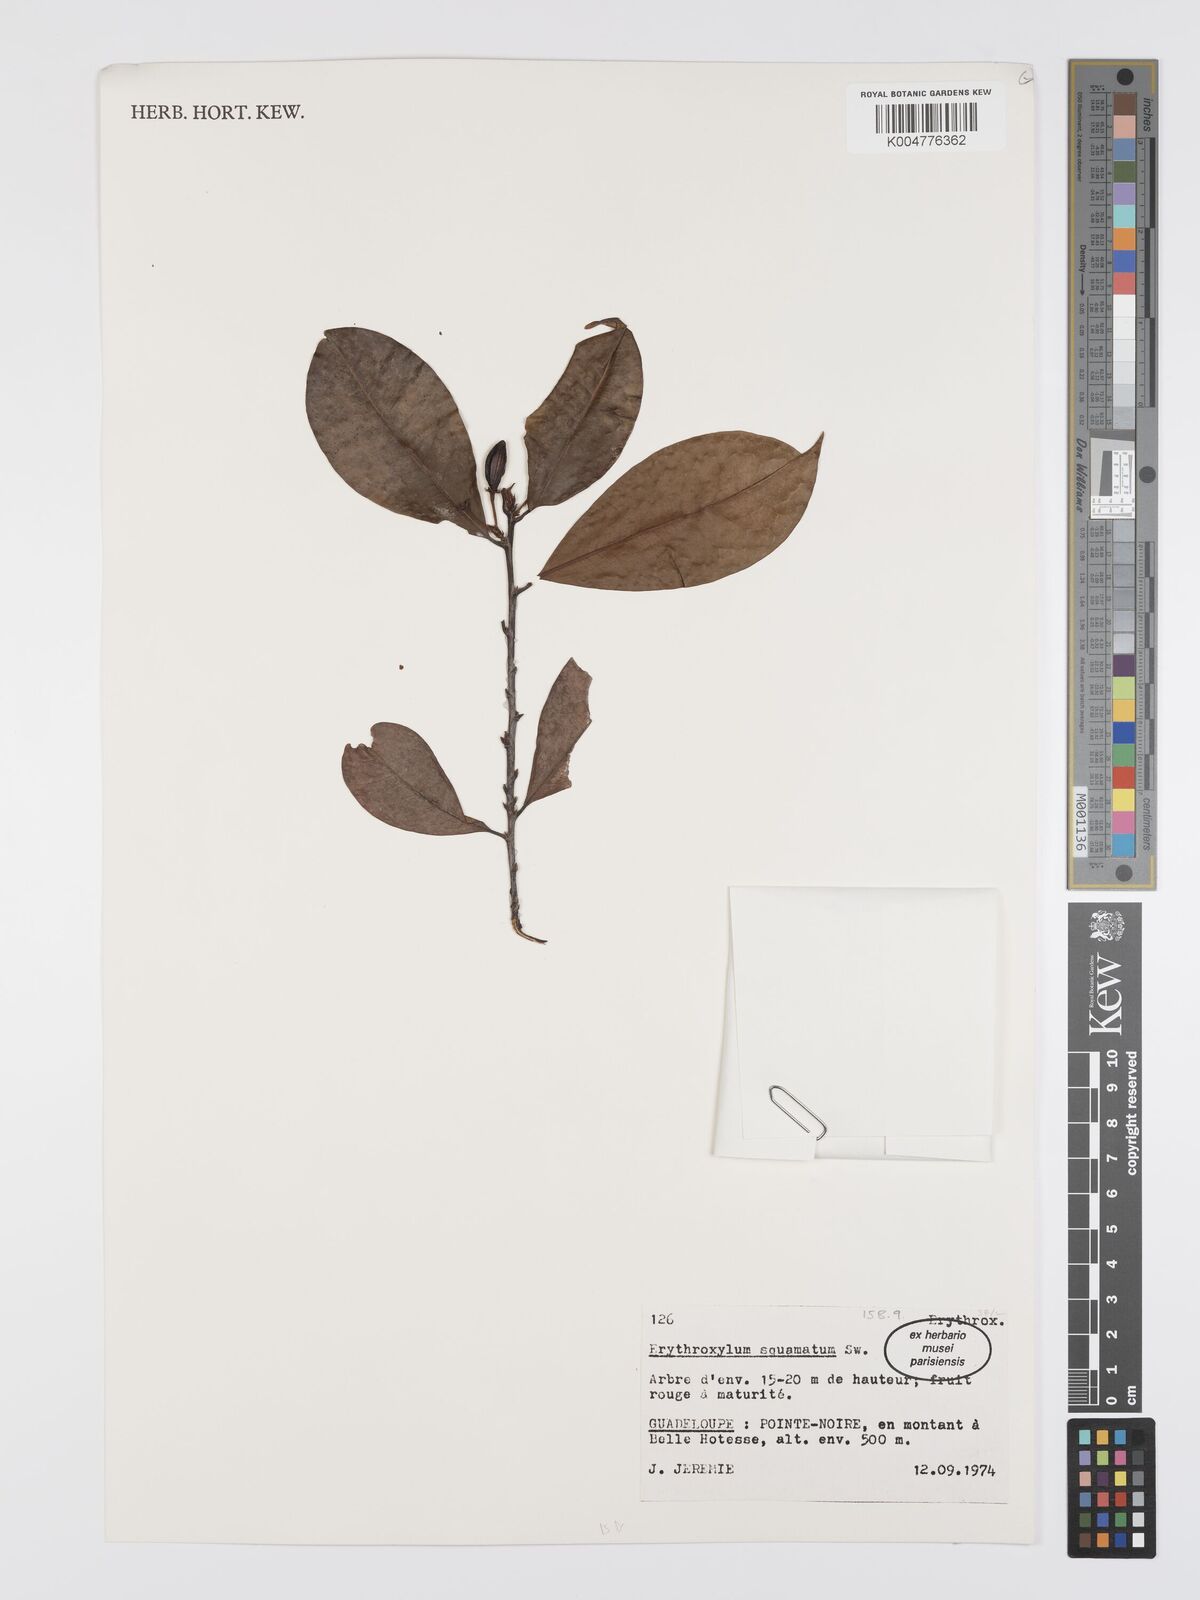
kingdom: Plantae
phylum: Tracheophyta
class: Magnoliopsida
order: Malpighiales
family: Erythroxylaceae
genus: Erythroxylum
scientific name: Erythroxylum squamatum
